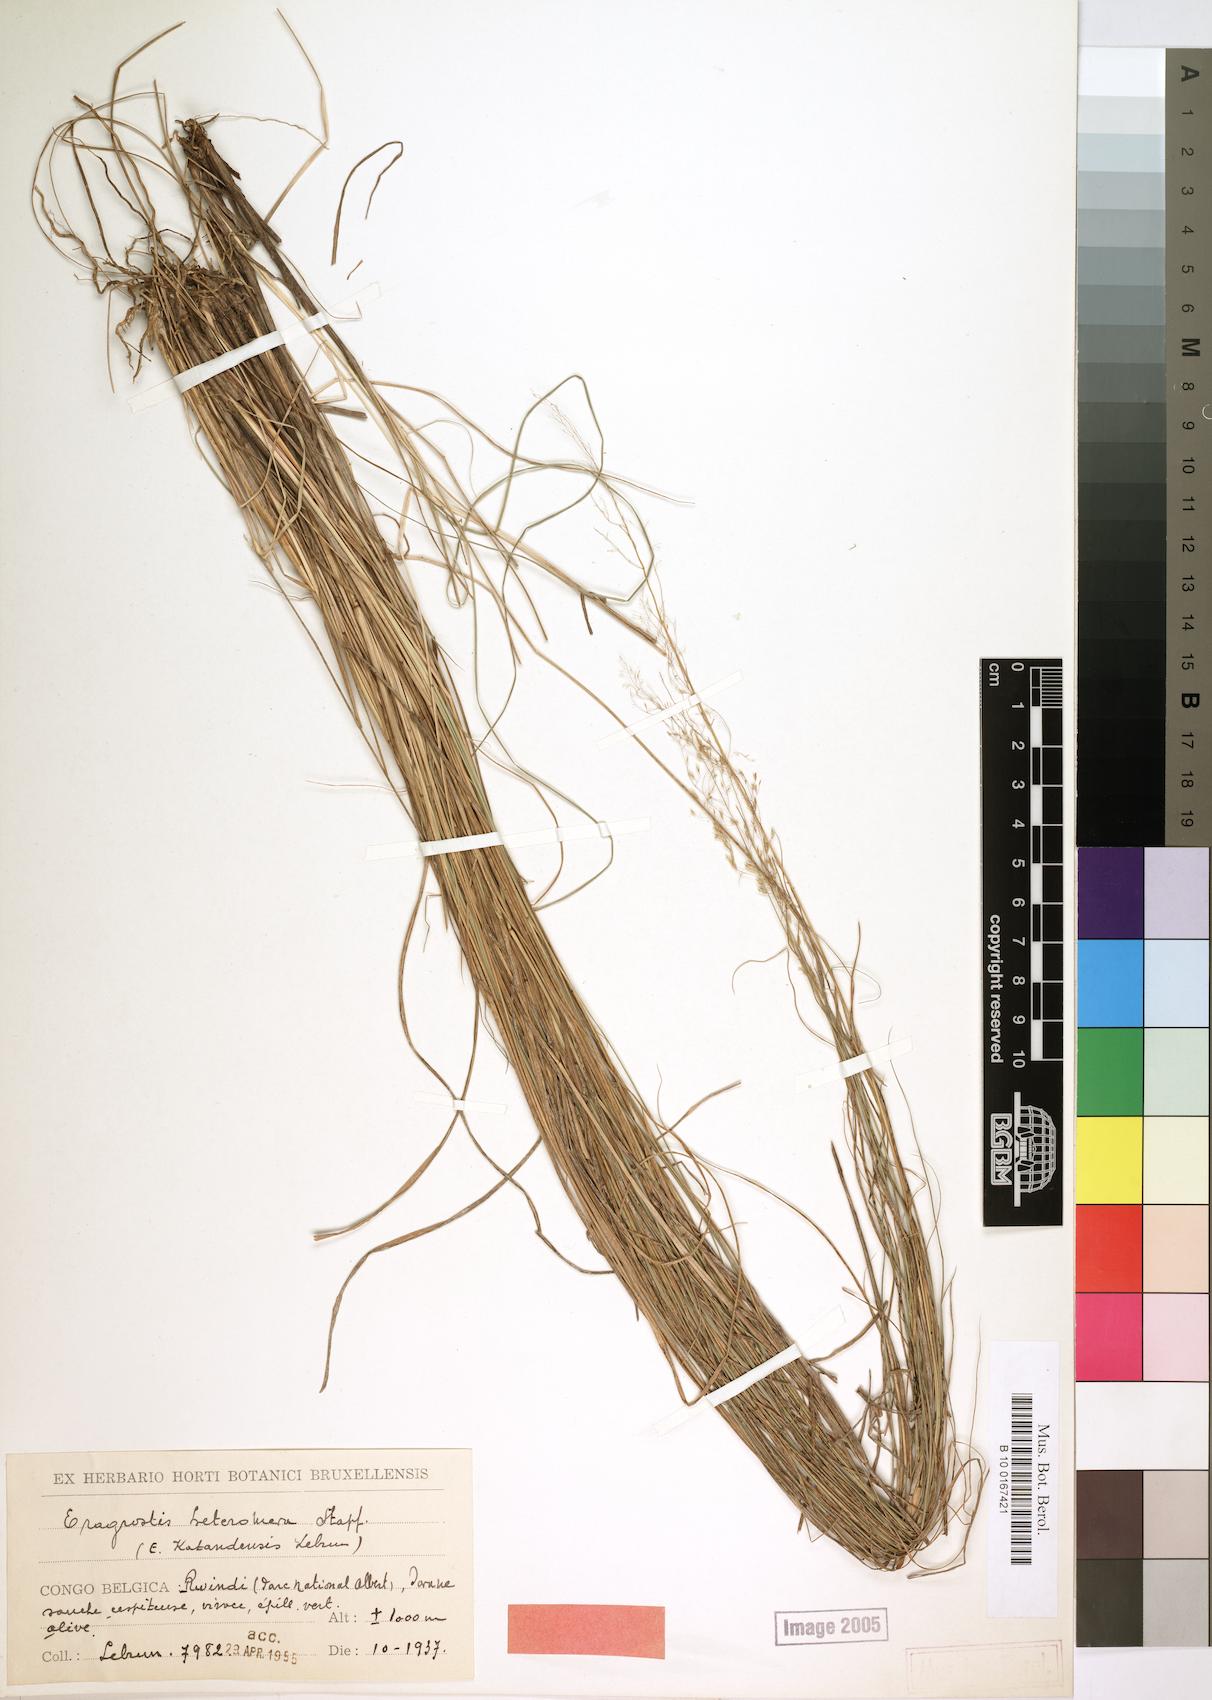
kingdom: Plantae
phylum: Tracheophyta
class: Liliopsida
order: Poales
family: Poaceae
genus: Eragrostis
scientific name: Eragrostis
